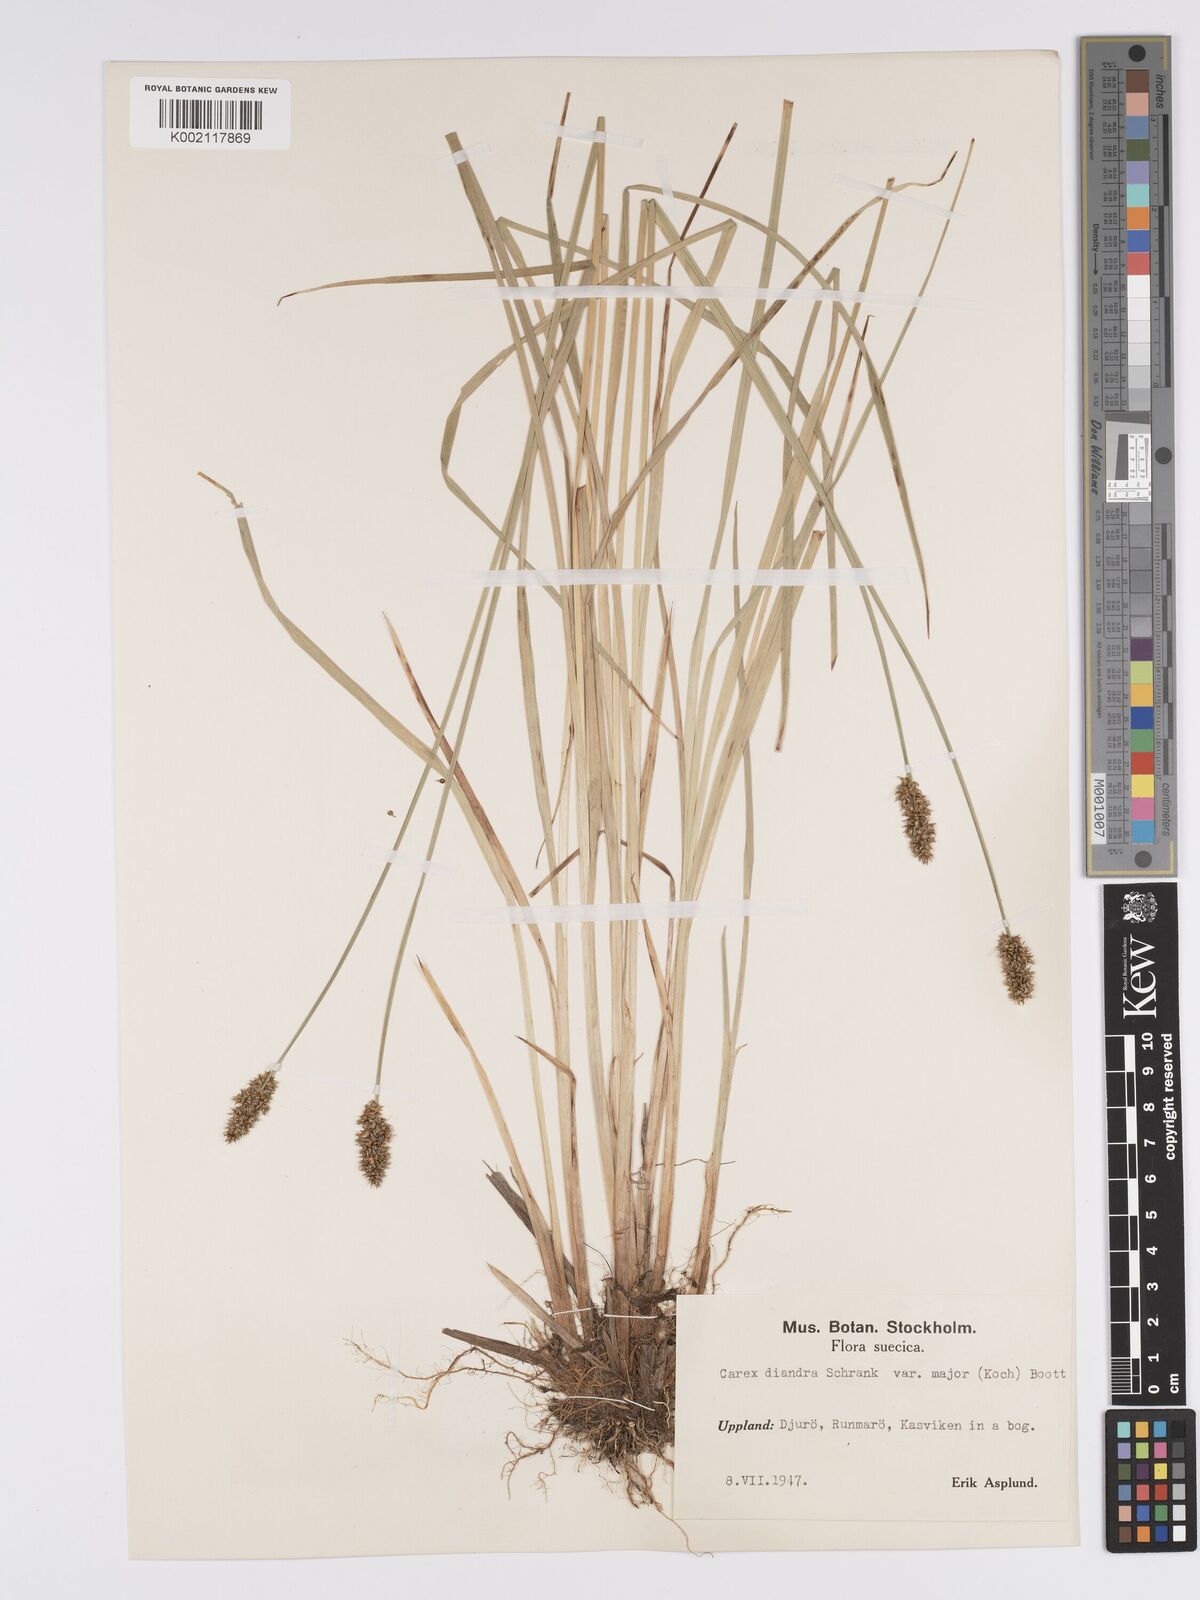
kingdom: Plantae
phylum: Tracheophyta
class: Liliopsida
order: Poales
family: Cyperaceae
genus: Carex
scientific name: Carex diandra
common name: Lesser tussock-sedge
